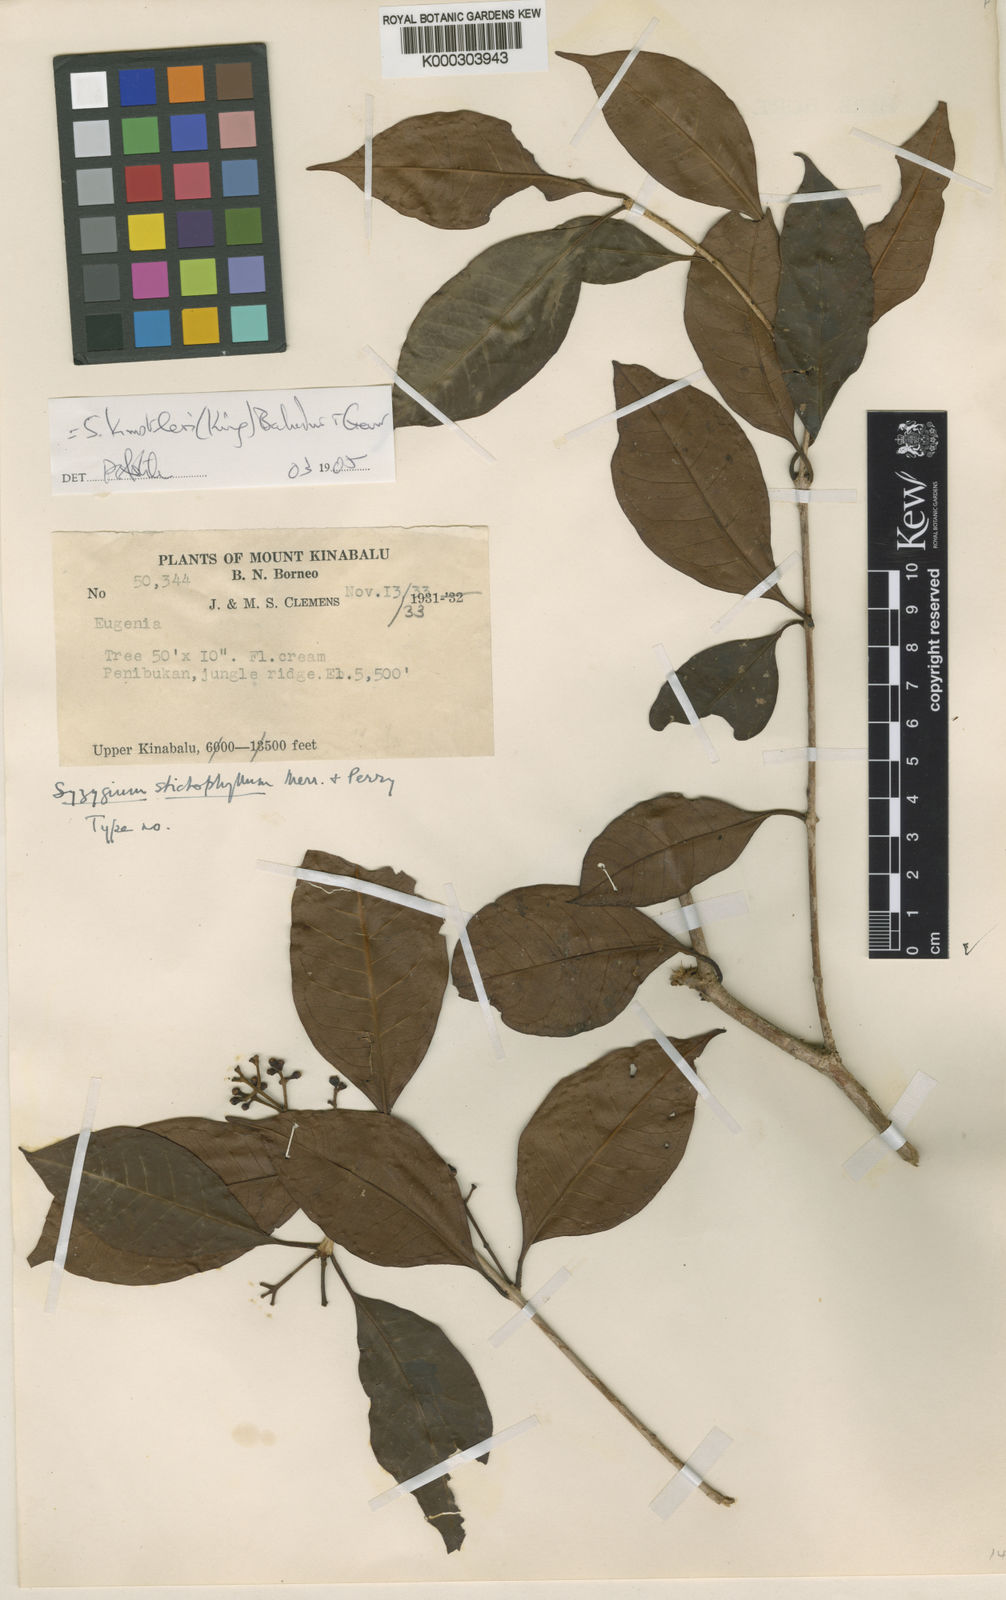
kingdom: Plantae
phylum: Tracheophyta
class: Magnoliopsida
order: Myrtales
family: Myrtaceae
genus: Syzygium
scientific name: Syzygium kunstleri
